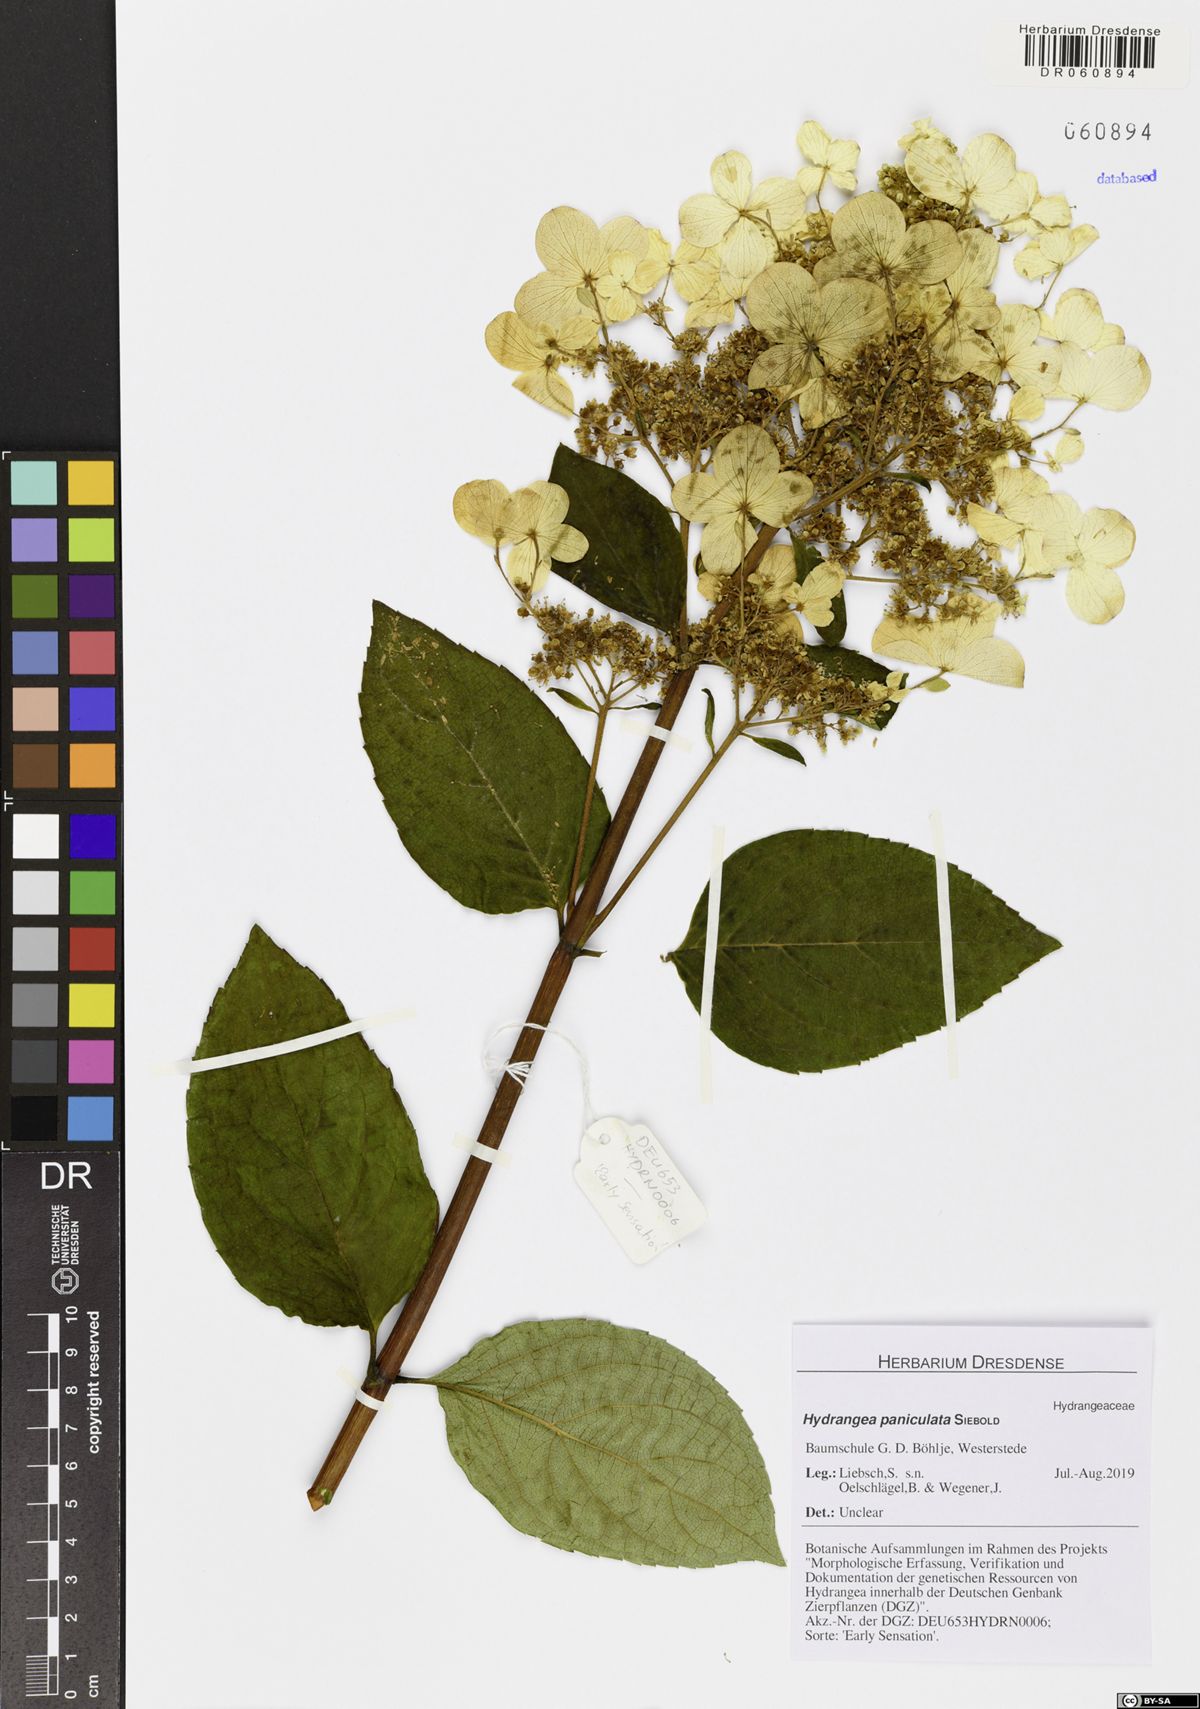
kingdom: Plantae
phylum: Tracheophyta
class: Magnoliopsida
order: Cornales
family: Hydrangeaceae
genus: Hydrangea
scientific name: Hydrangea paniculata
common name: Panicled hydrangea
